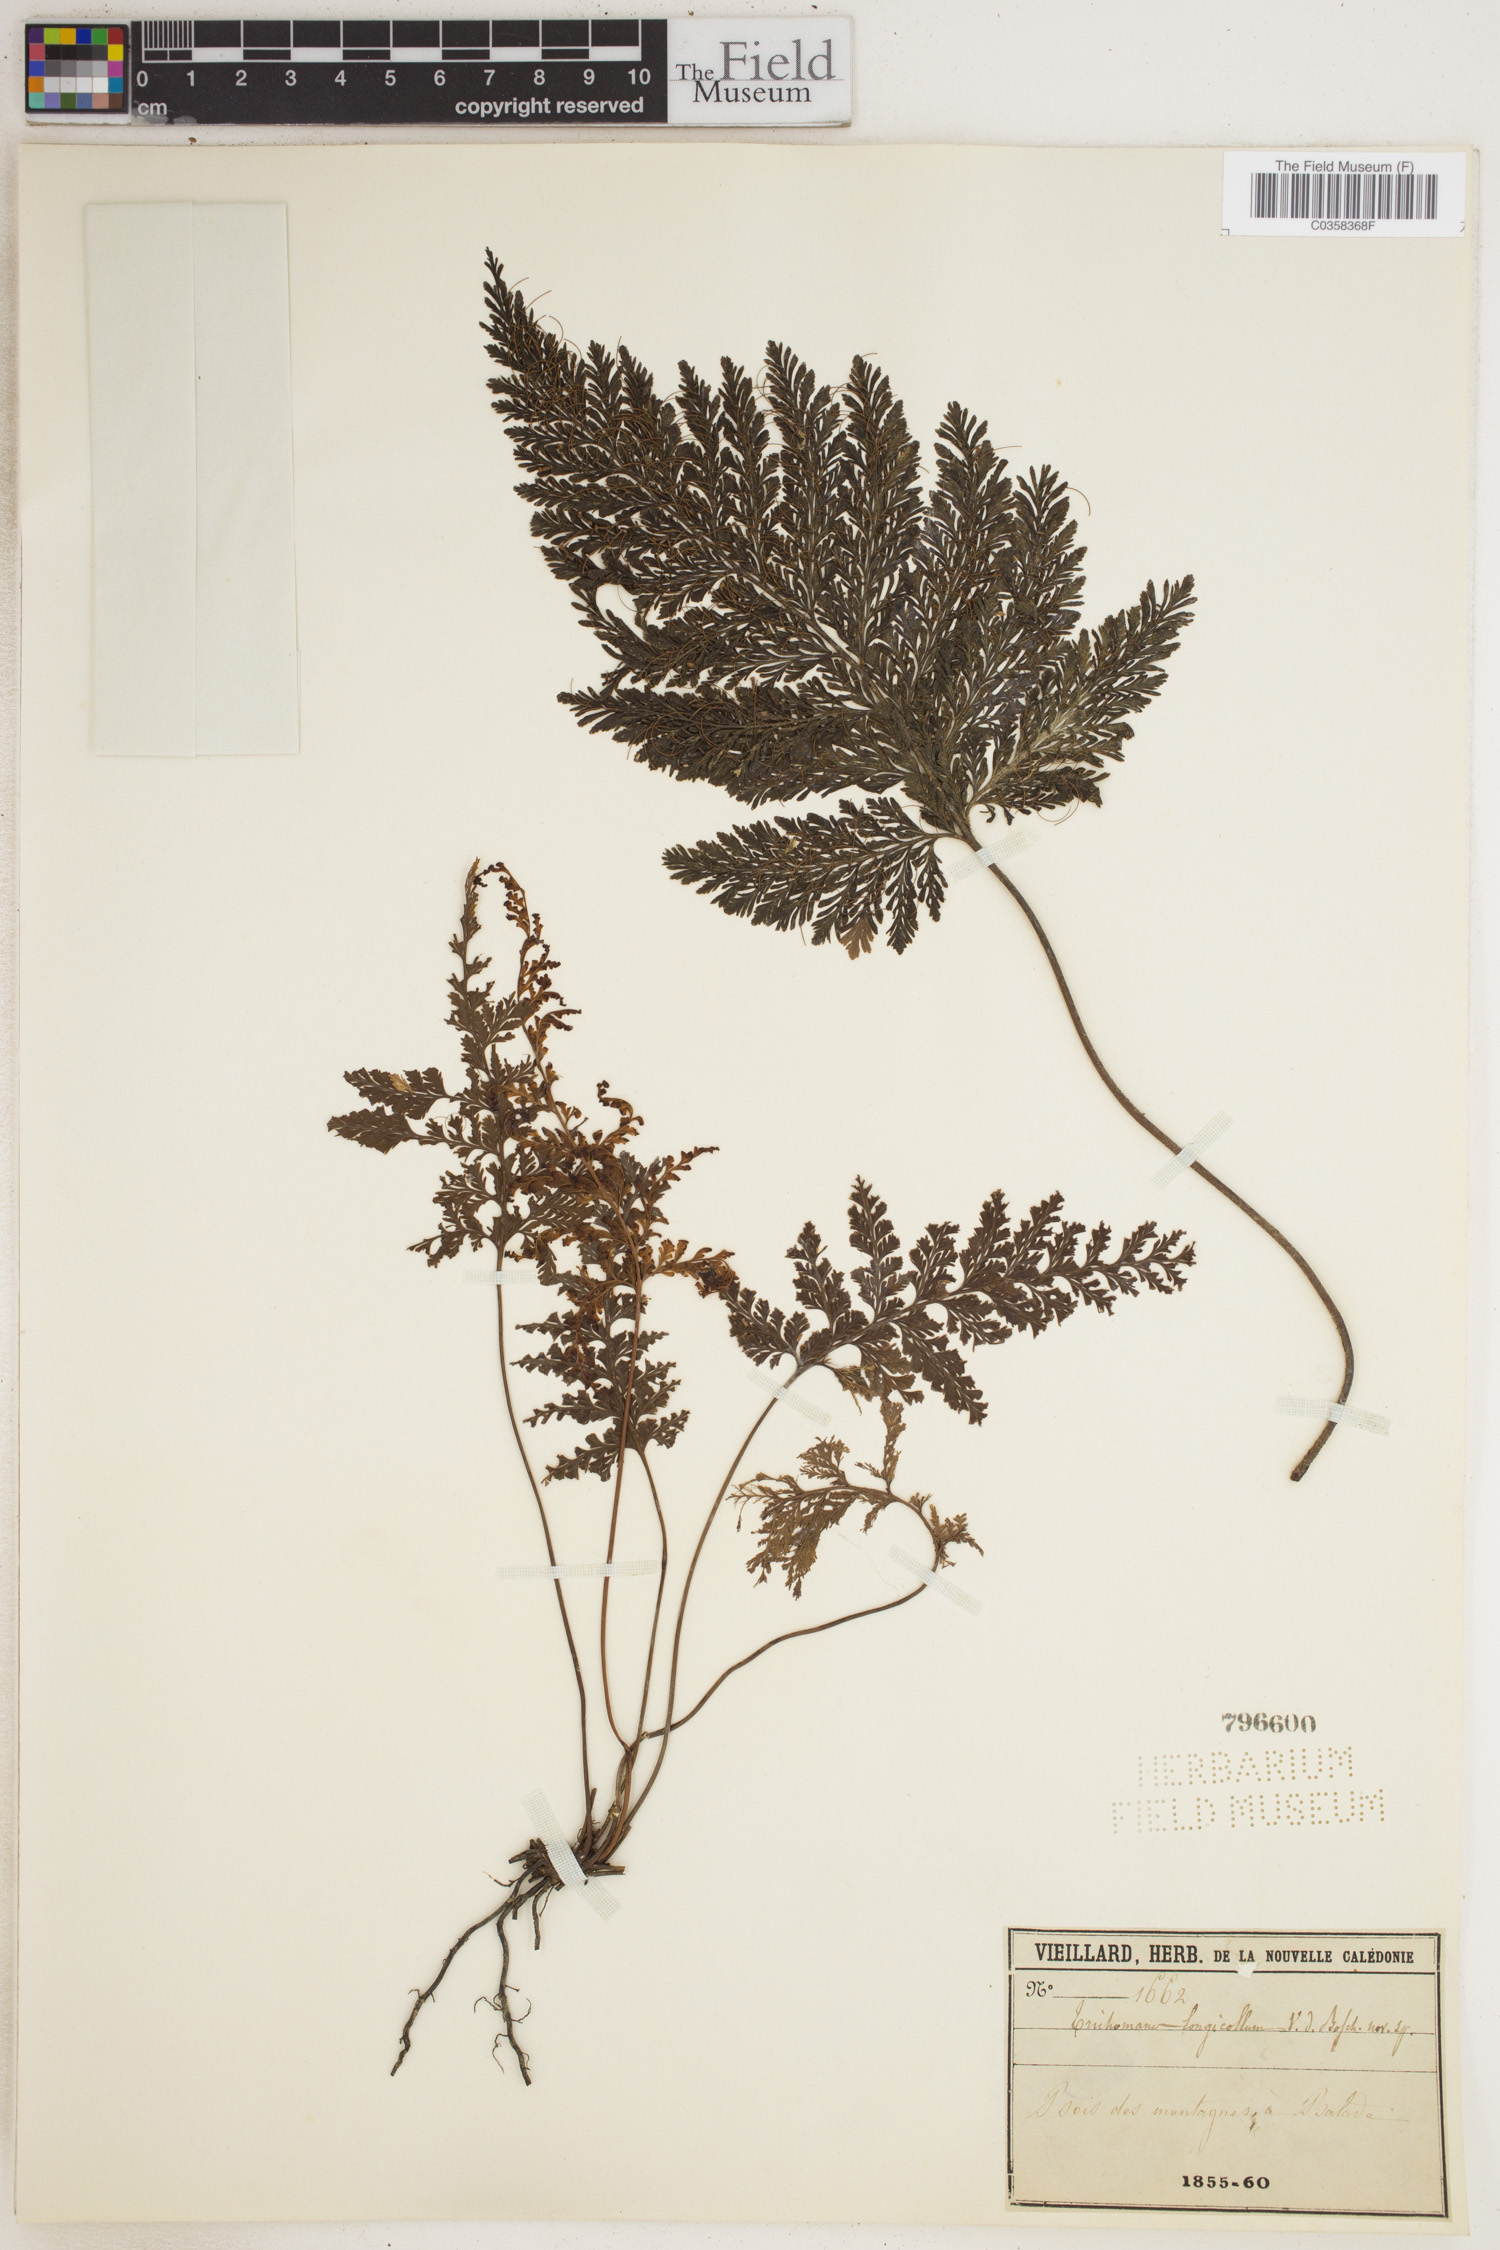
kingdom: Plantae
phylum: Tracheophyta
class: Polypodiopsida
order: Hymenophyllales
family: Hymenophyllaceae
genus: Abrodictyum
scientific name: Abrodictyum dentatum
